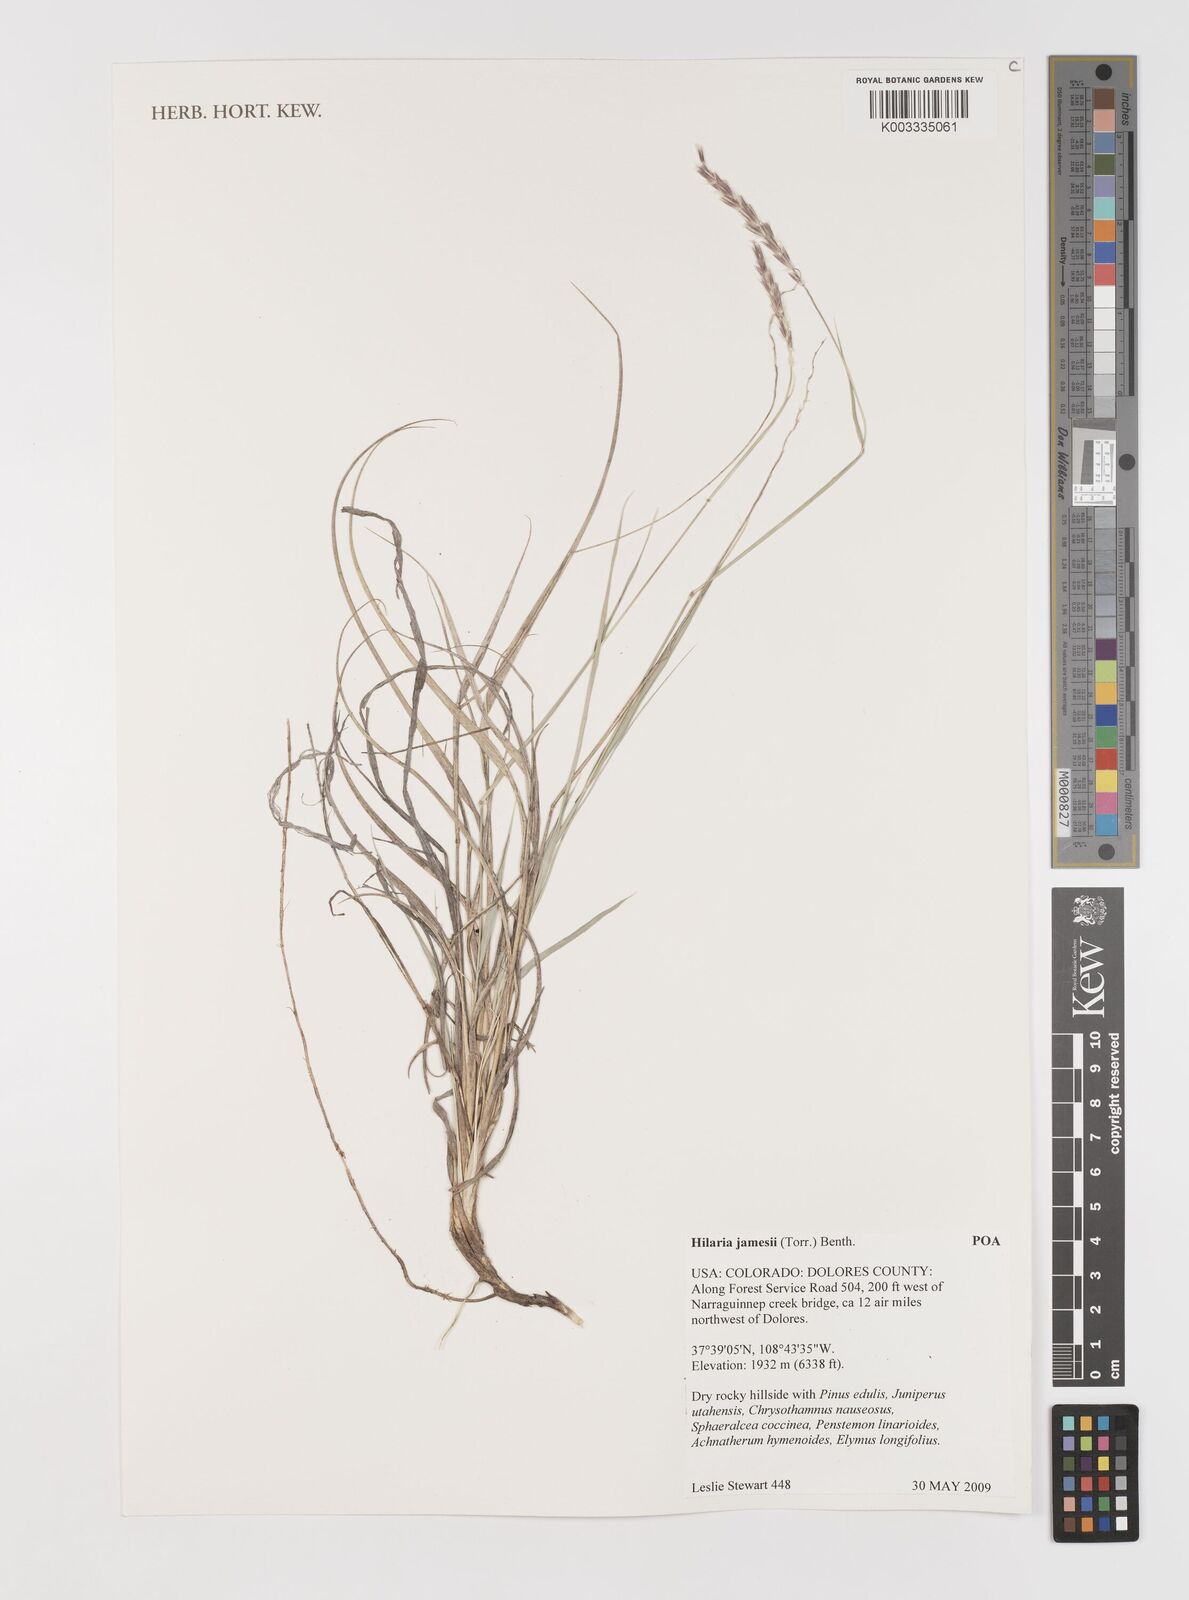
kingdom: Plantae
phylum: Tracheophyta
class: Liliopsida
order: Poales
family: Poaceae
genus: Hilaria
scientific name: Hilaria jamesii
